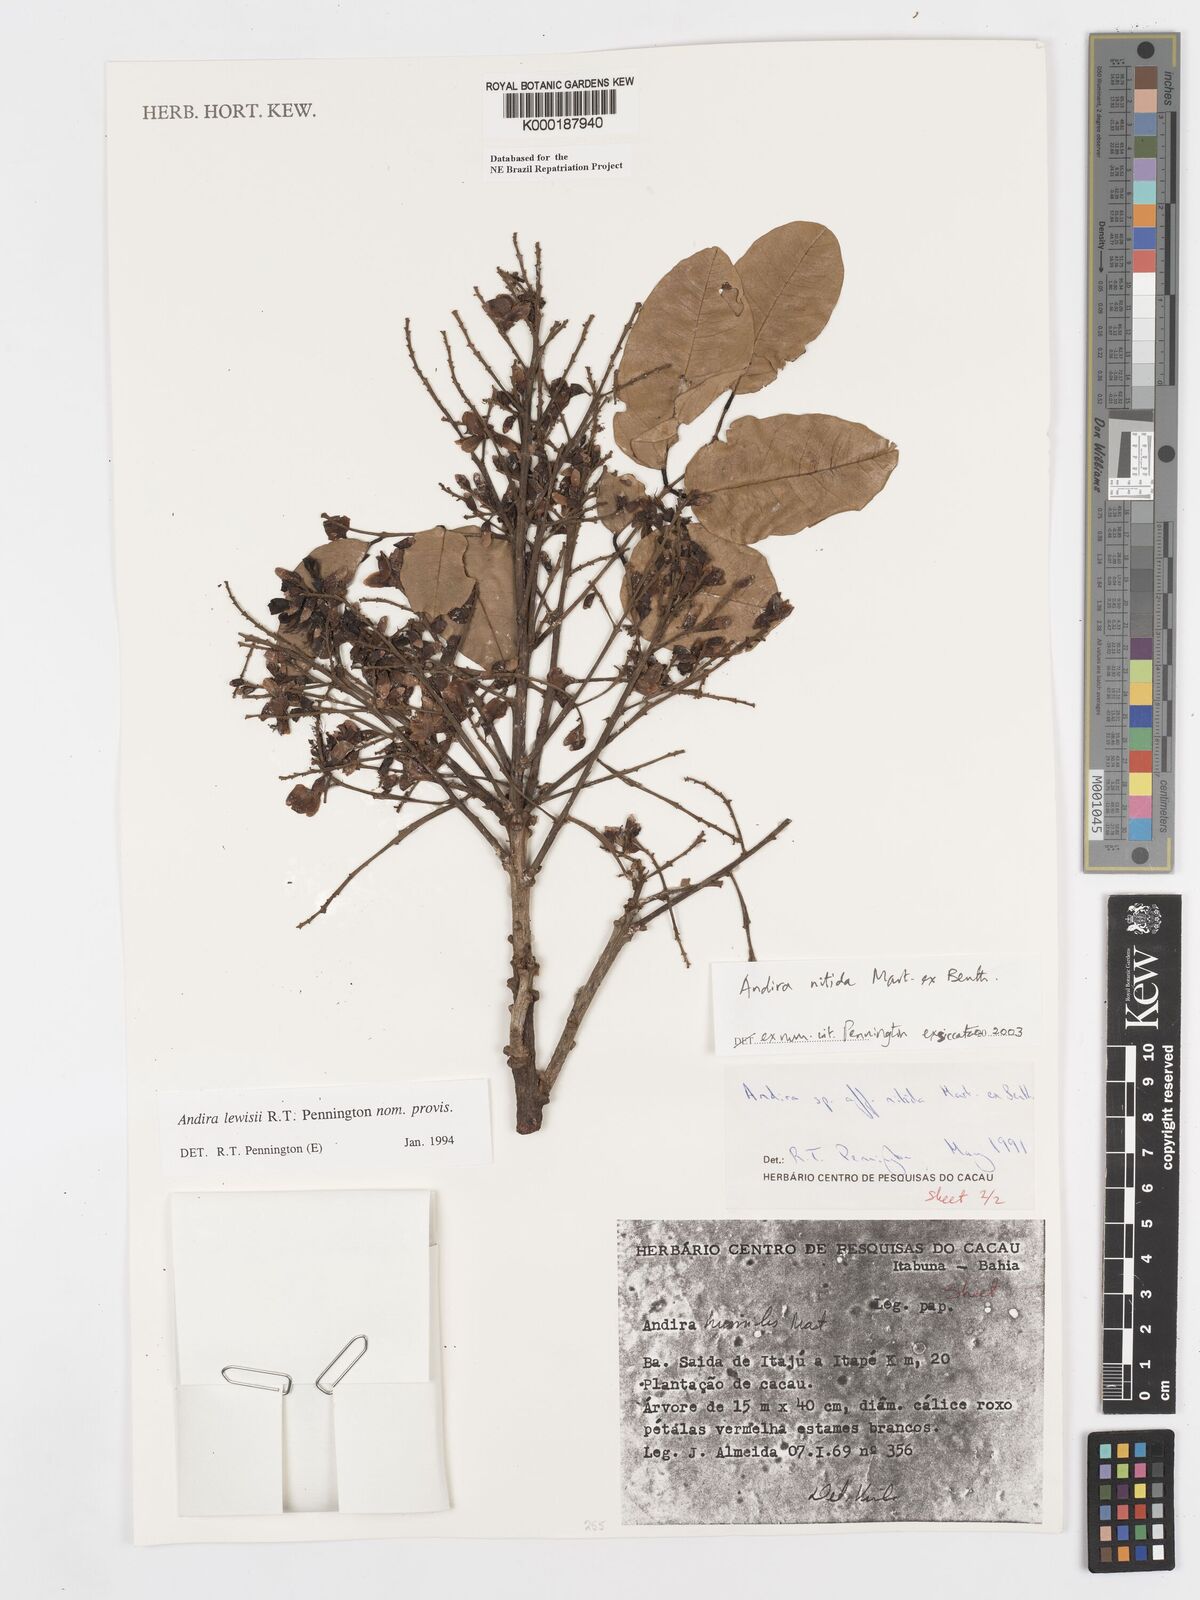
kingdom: Plantae
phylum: Tracheophyta
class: Magnoliopsida
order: Fabales
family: Fabaceae
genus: Andira
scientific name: Andira nitida
